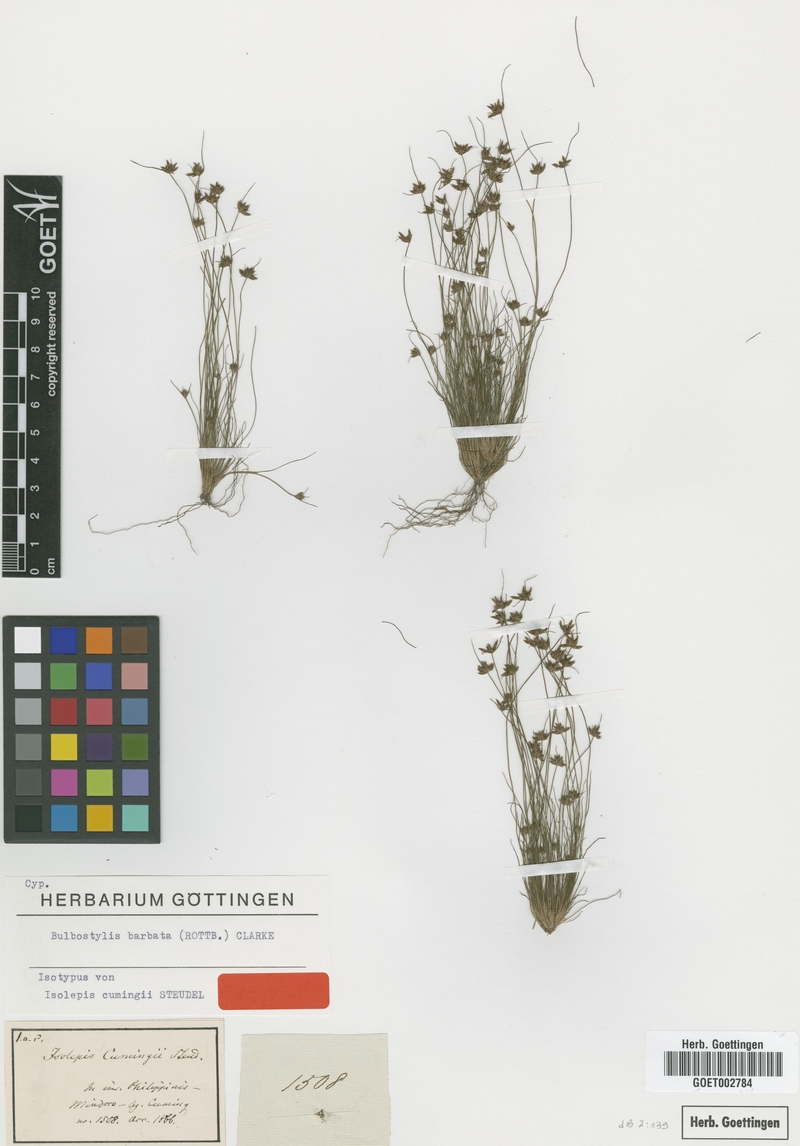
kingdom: Plantae
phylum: Tracheophyta
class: Liliopsida
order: Poales
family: Cyperaceae
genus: Bulbostylis
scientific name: Bulbostylis barbata
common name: Watergrass
